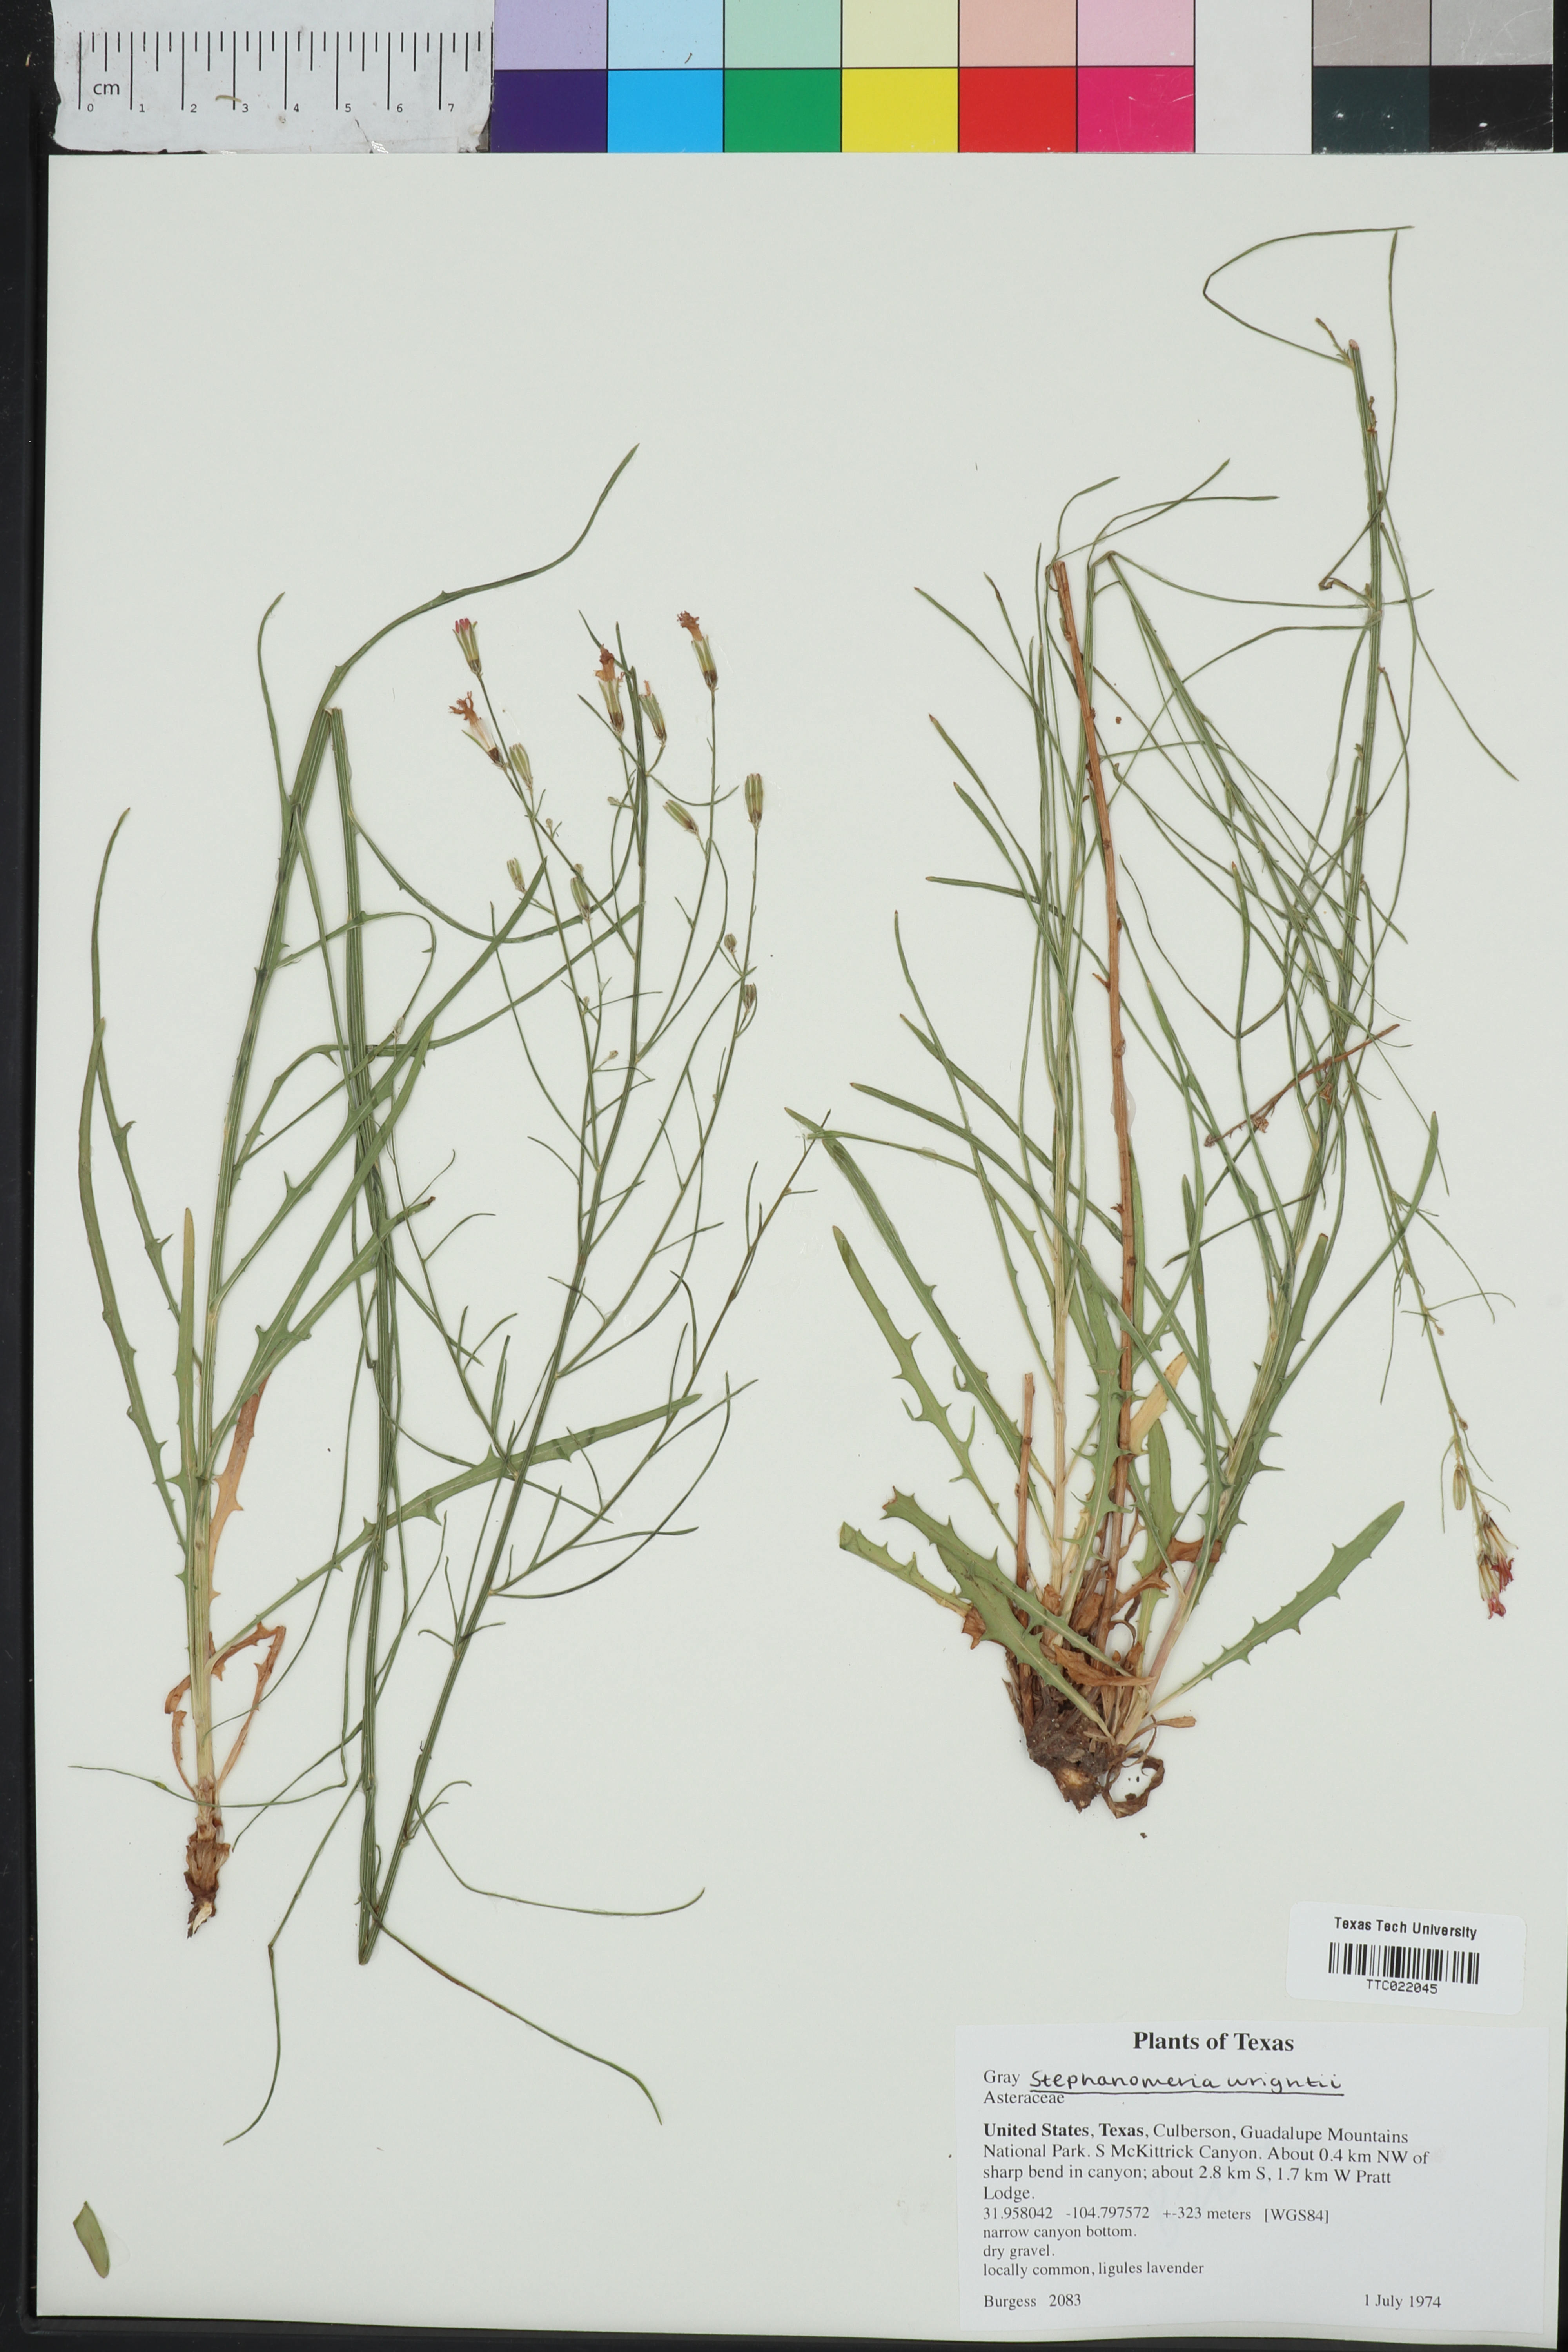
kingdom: Plantae
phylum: Tracheophyta
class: Magnoliopsida
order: Asterales
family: Asteraceae
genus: Stephanomeria
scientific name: Stephanomeria tenuifolia
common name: Slender wirelettuce
